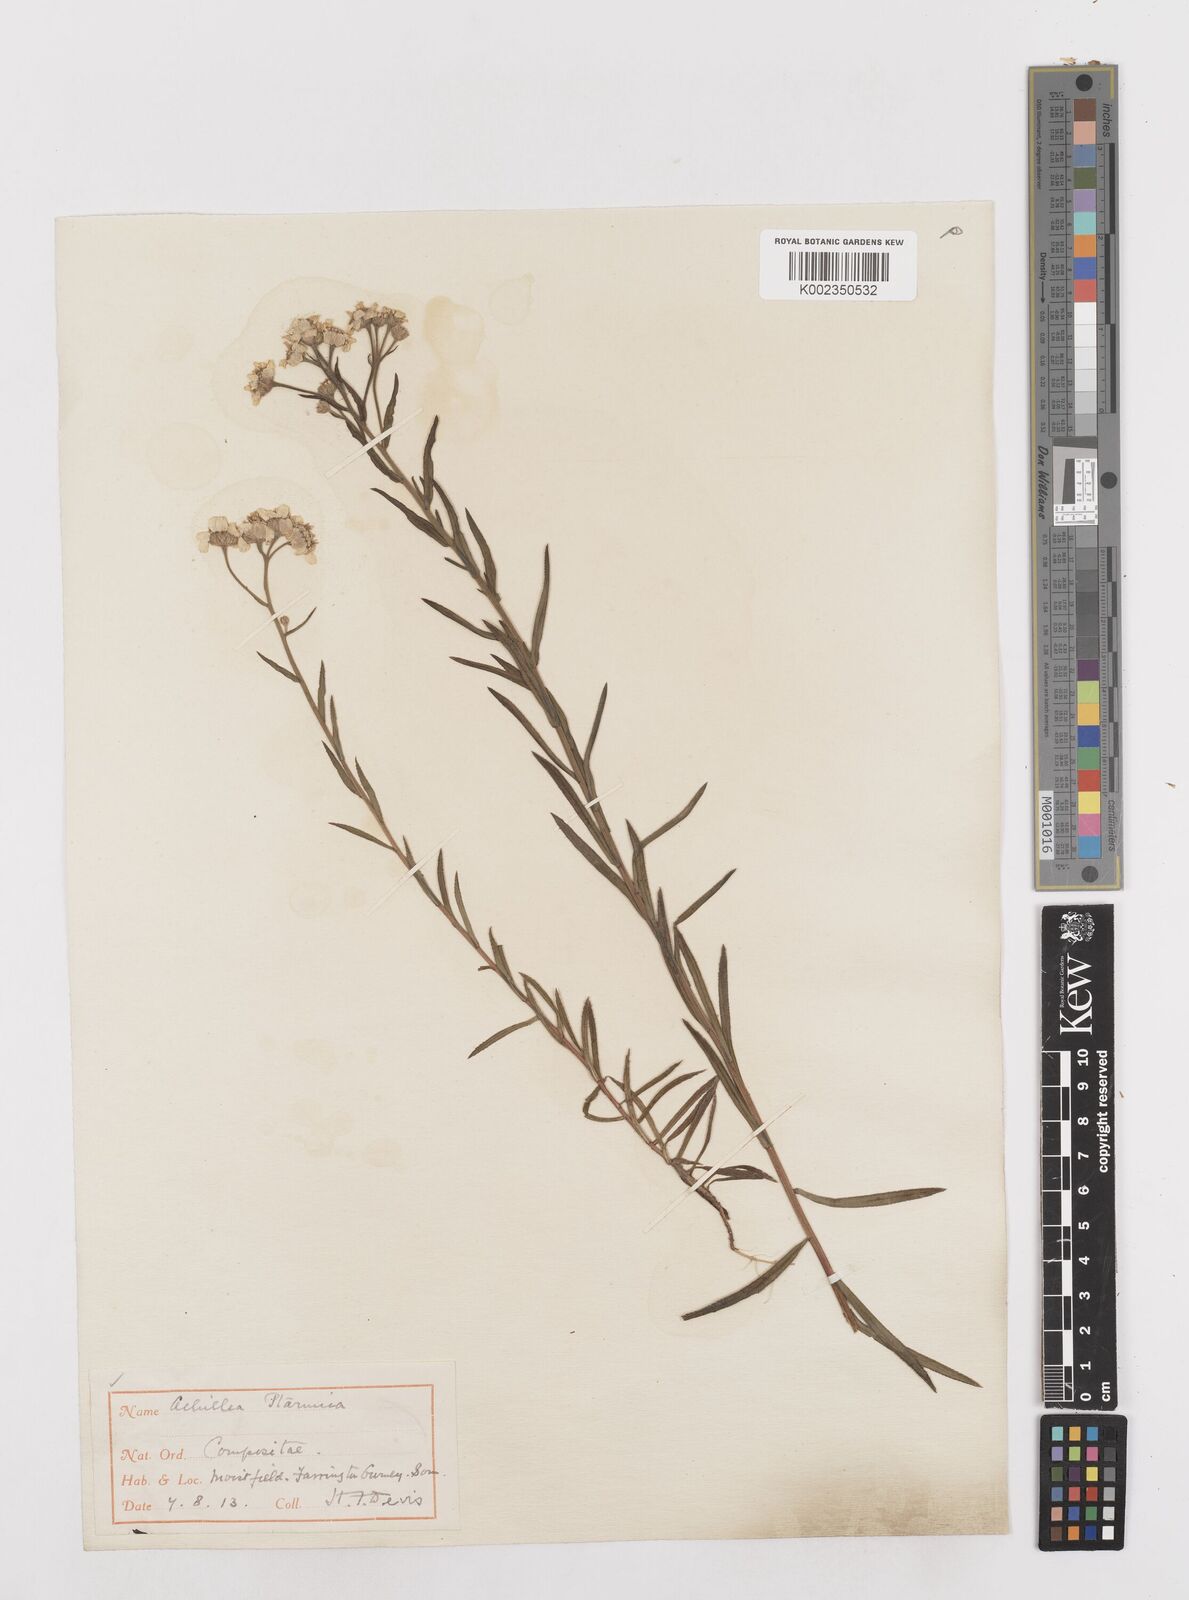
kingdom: Plantae
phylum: Tracheophyta
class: Magnoliopsida
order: Asterales
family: Asteraceae
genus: Achillea
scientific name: Achillea ptarmica
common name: Sneezeweed
